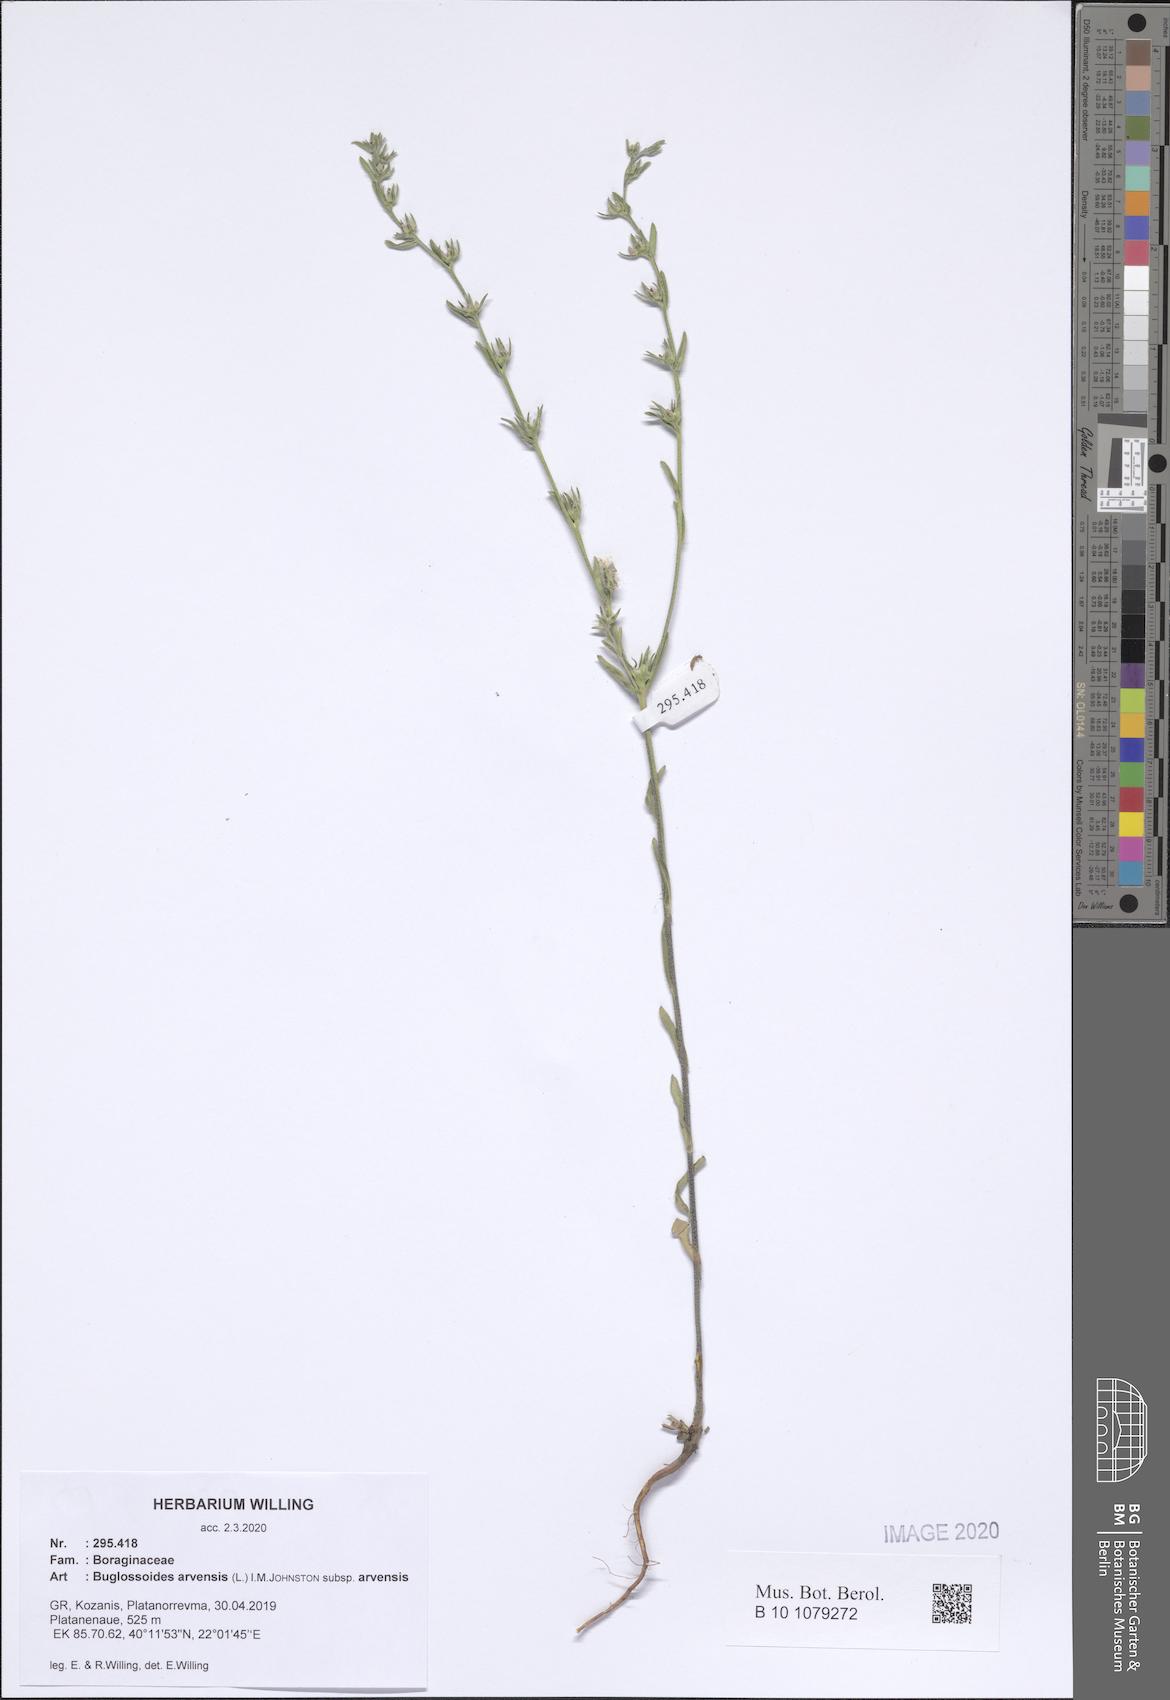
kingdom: Plantae
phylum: Tracheophyta
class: Magnoliopsida
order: Boraginales
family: Boraginaceae
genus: Buglossoides
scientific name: Buglossoides arvensis
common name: Corn gromwell
